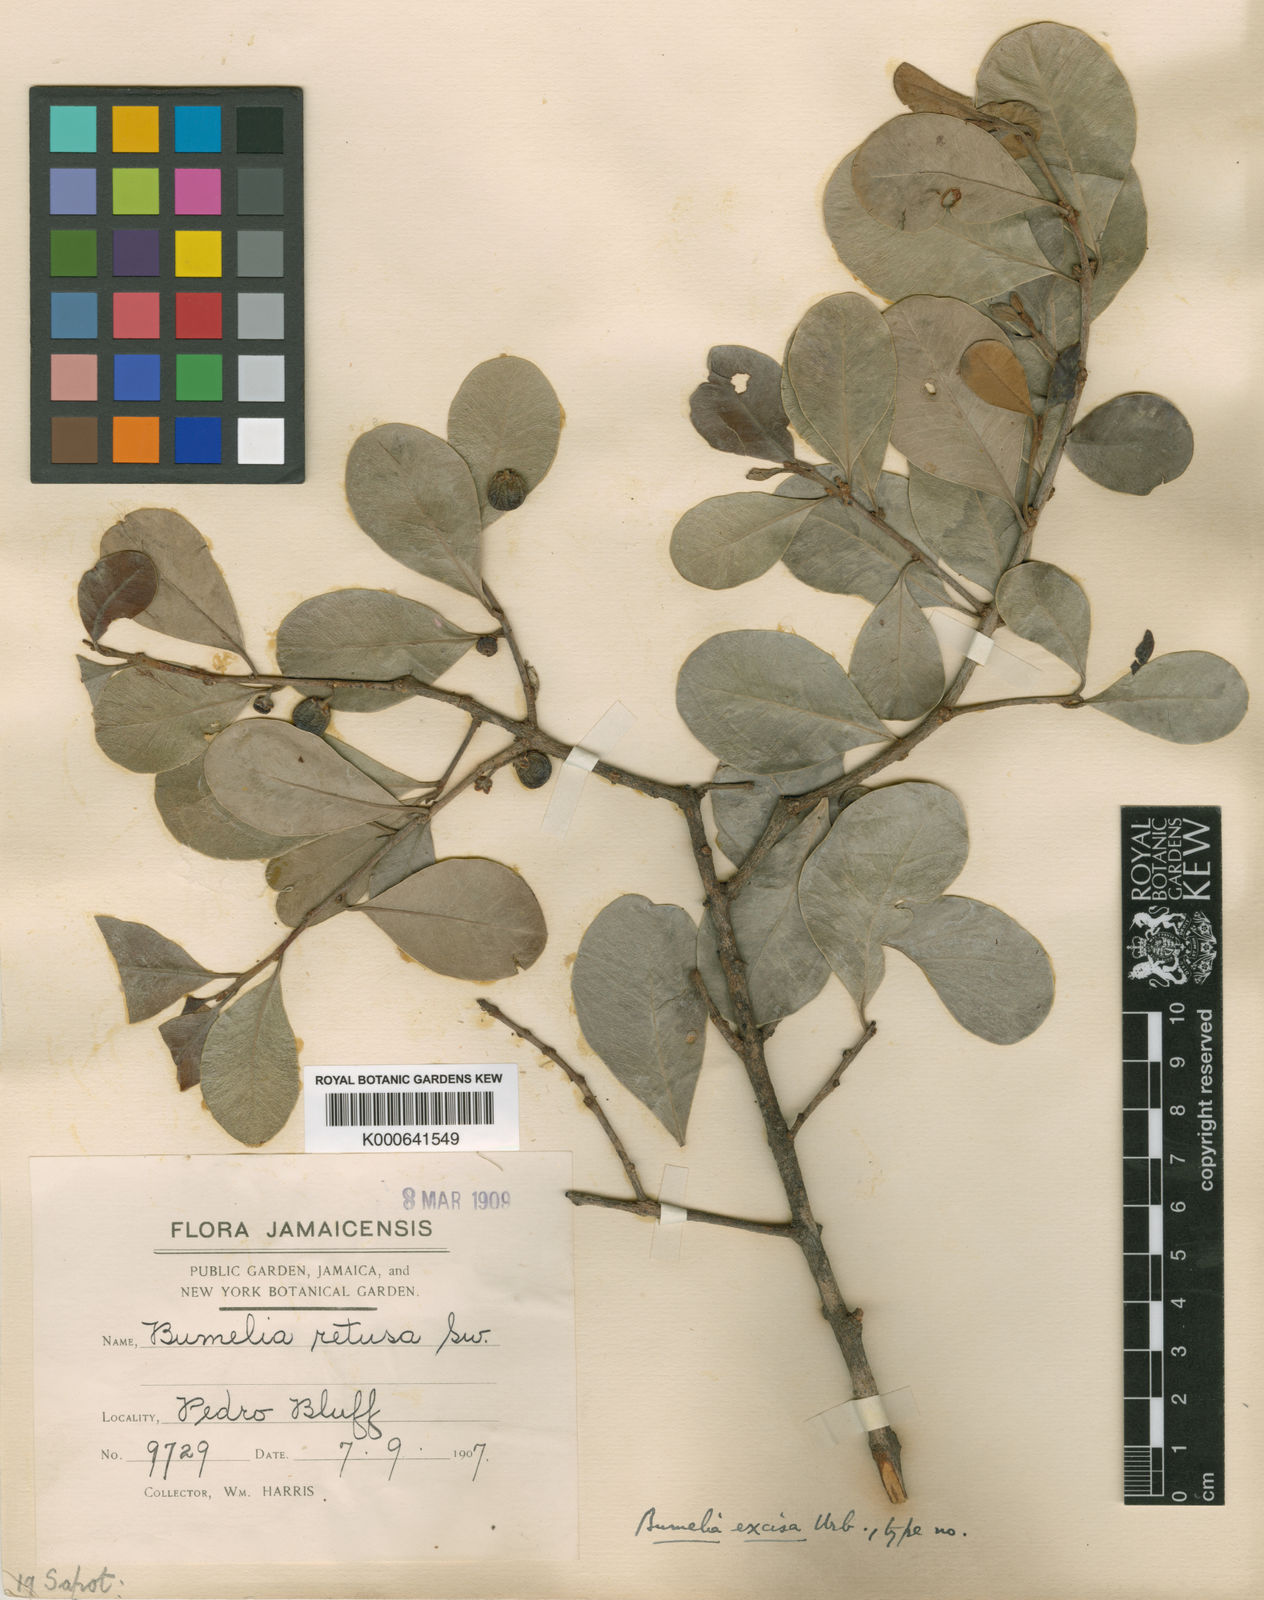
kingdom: Plantae
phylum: Tracheophyta
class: Magnoliopsida
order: Ericales
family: Sapotaceae
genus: Sideroxylon
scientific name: Sideroxylon americanum
